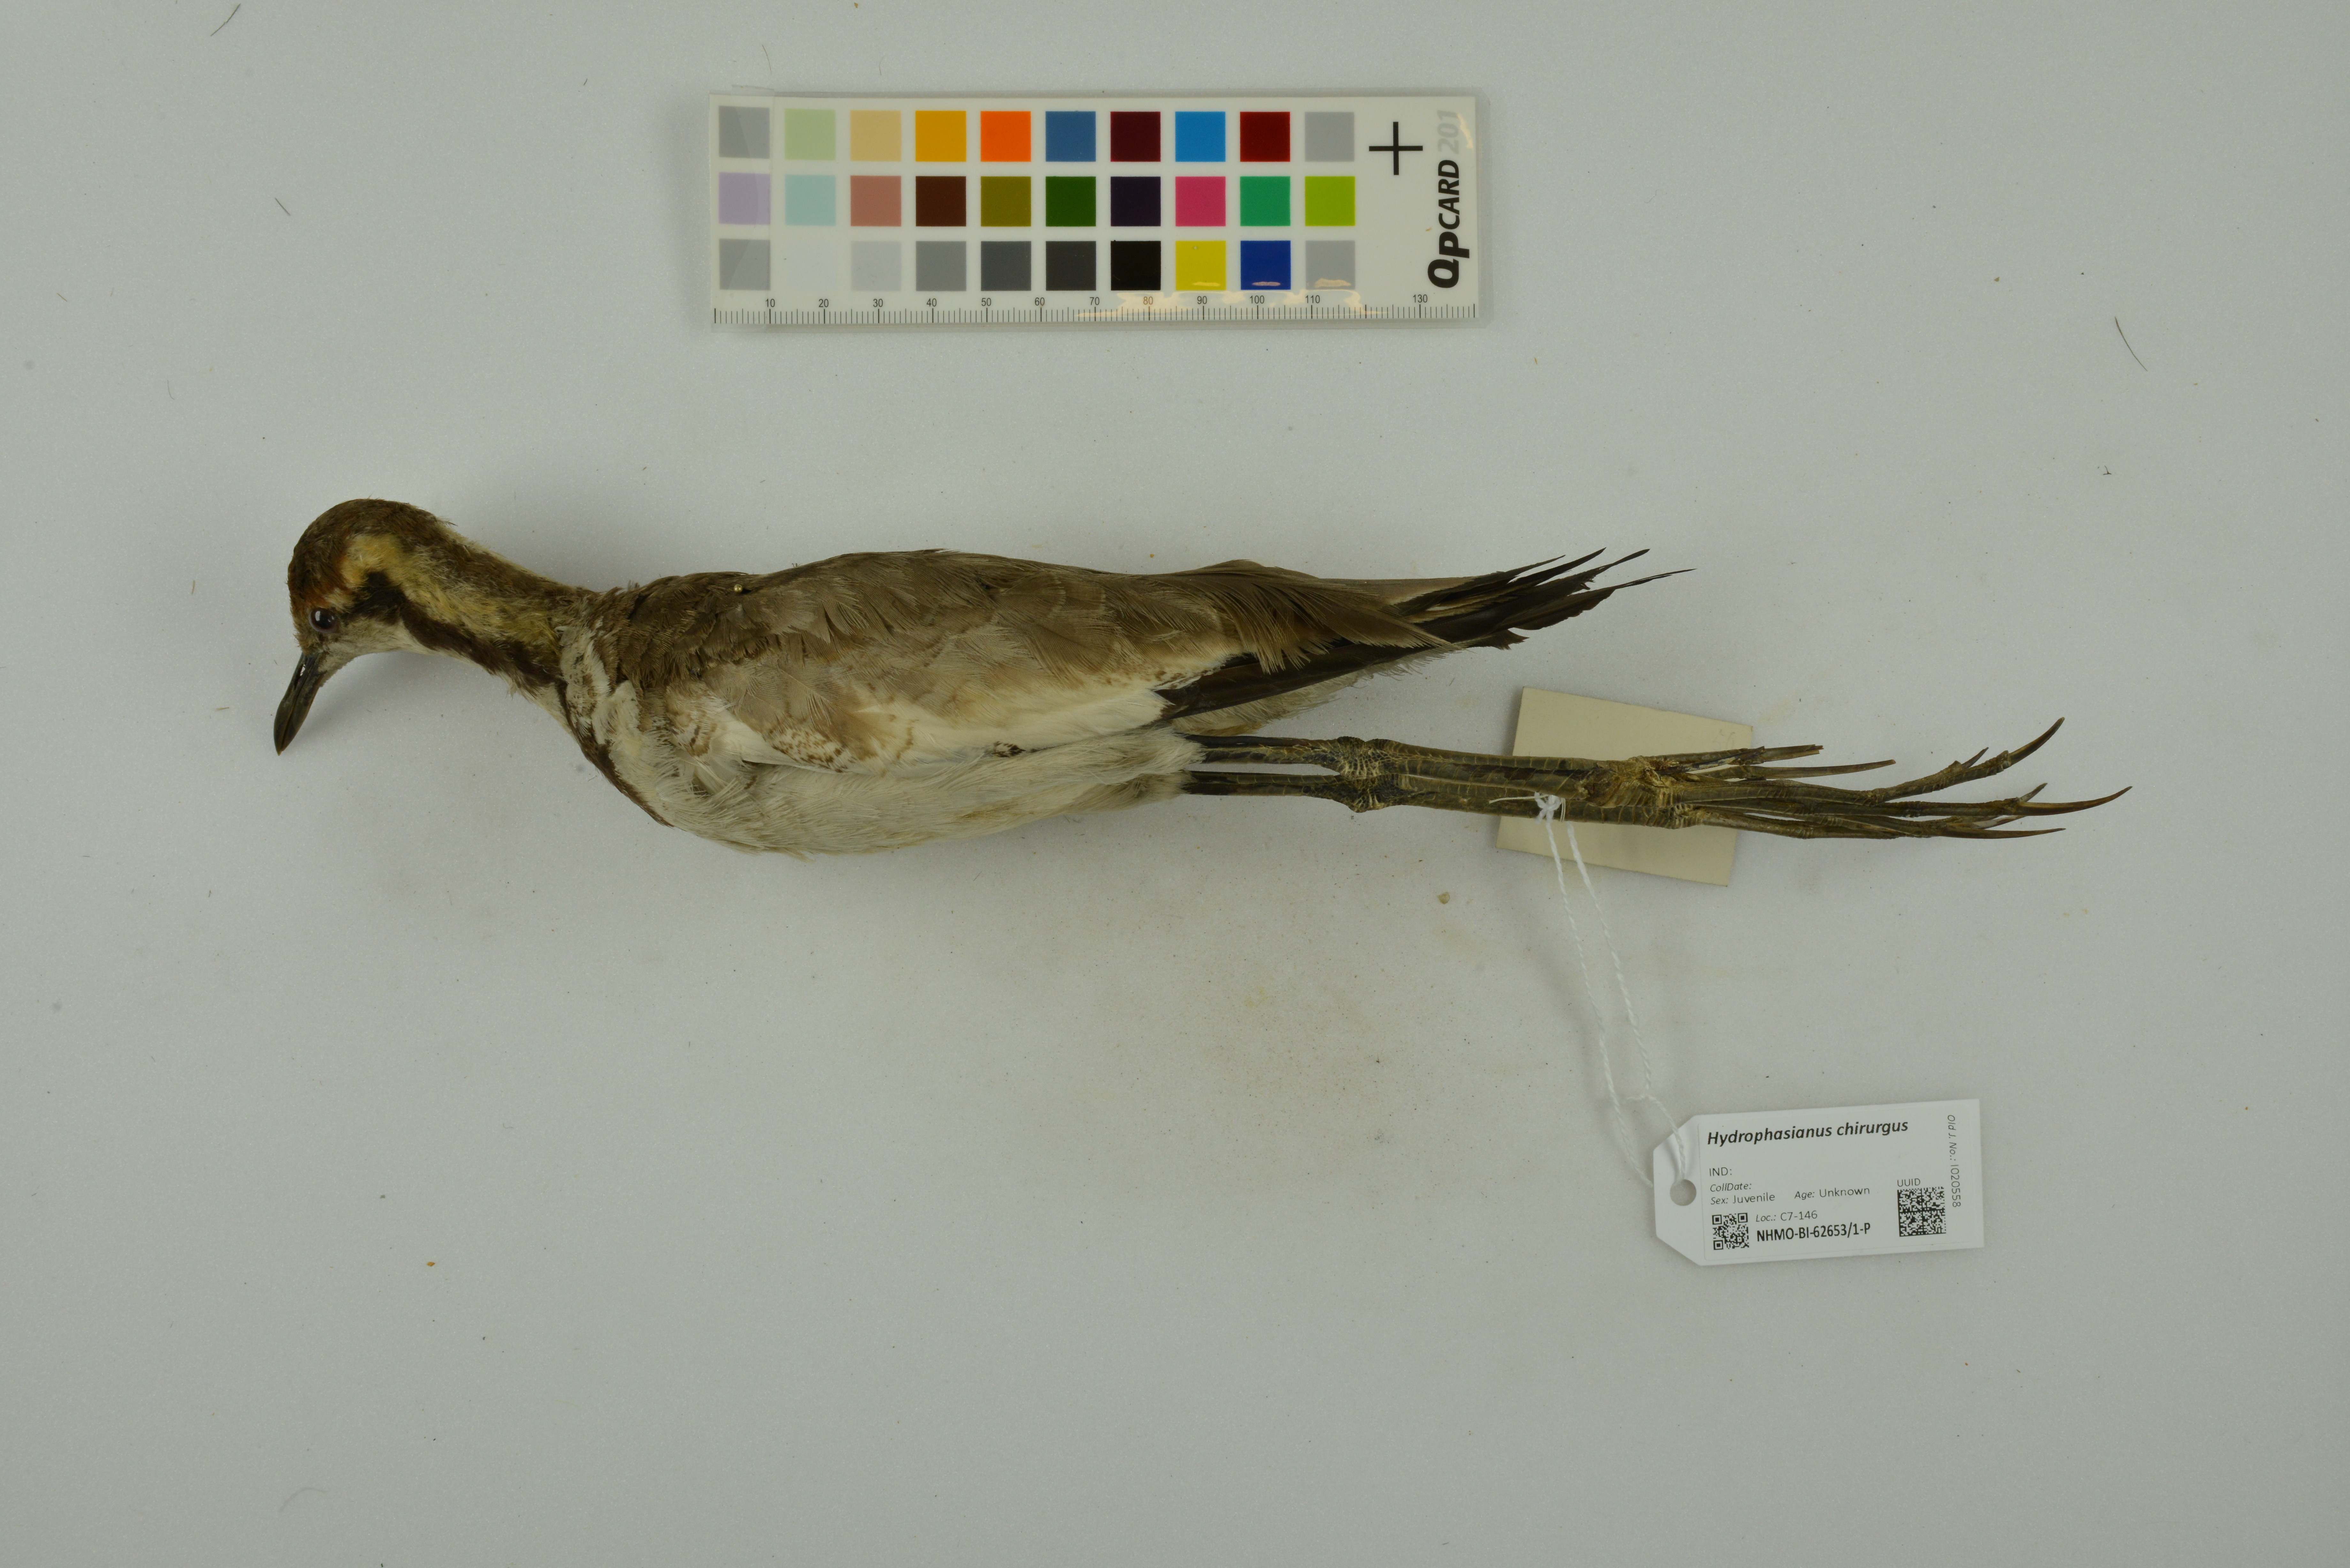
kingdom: Animalia
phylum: Chordata
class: Aves
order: Charadriiformes
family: Jacanidae
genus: Hydrophasianus
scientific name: Hydrophasianus chirurgus
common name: Pheasant-tailed jacana
